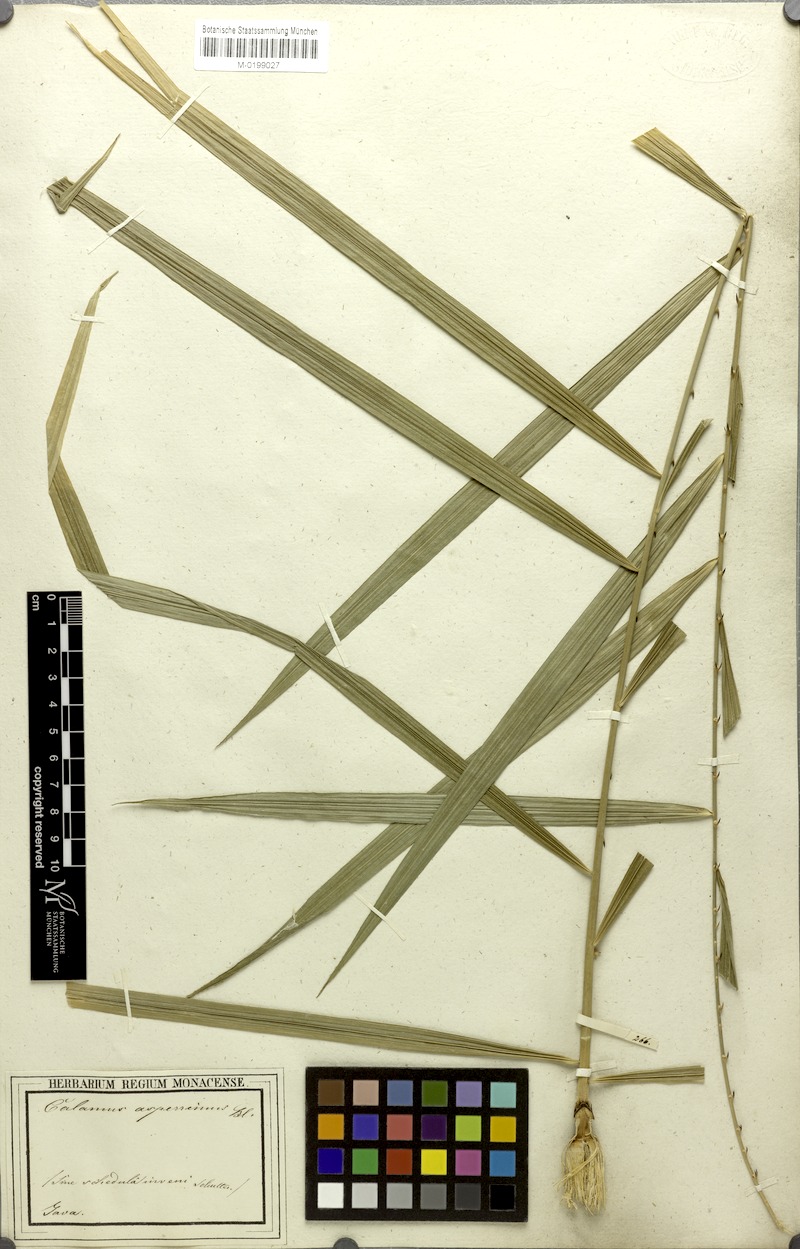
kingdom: Plantae
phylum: Tracheophyta
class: Liliopsida
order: Arecales
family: Arecaceae
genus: Calamus
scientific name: Calamus asperrimus
